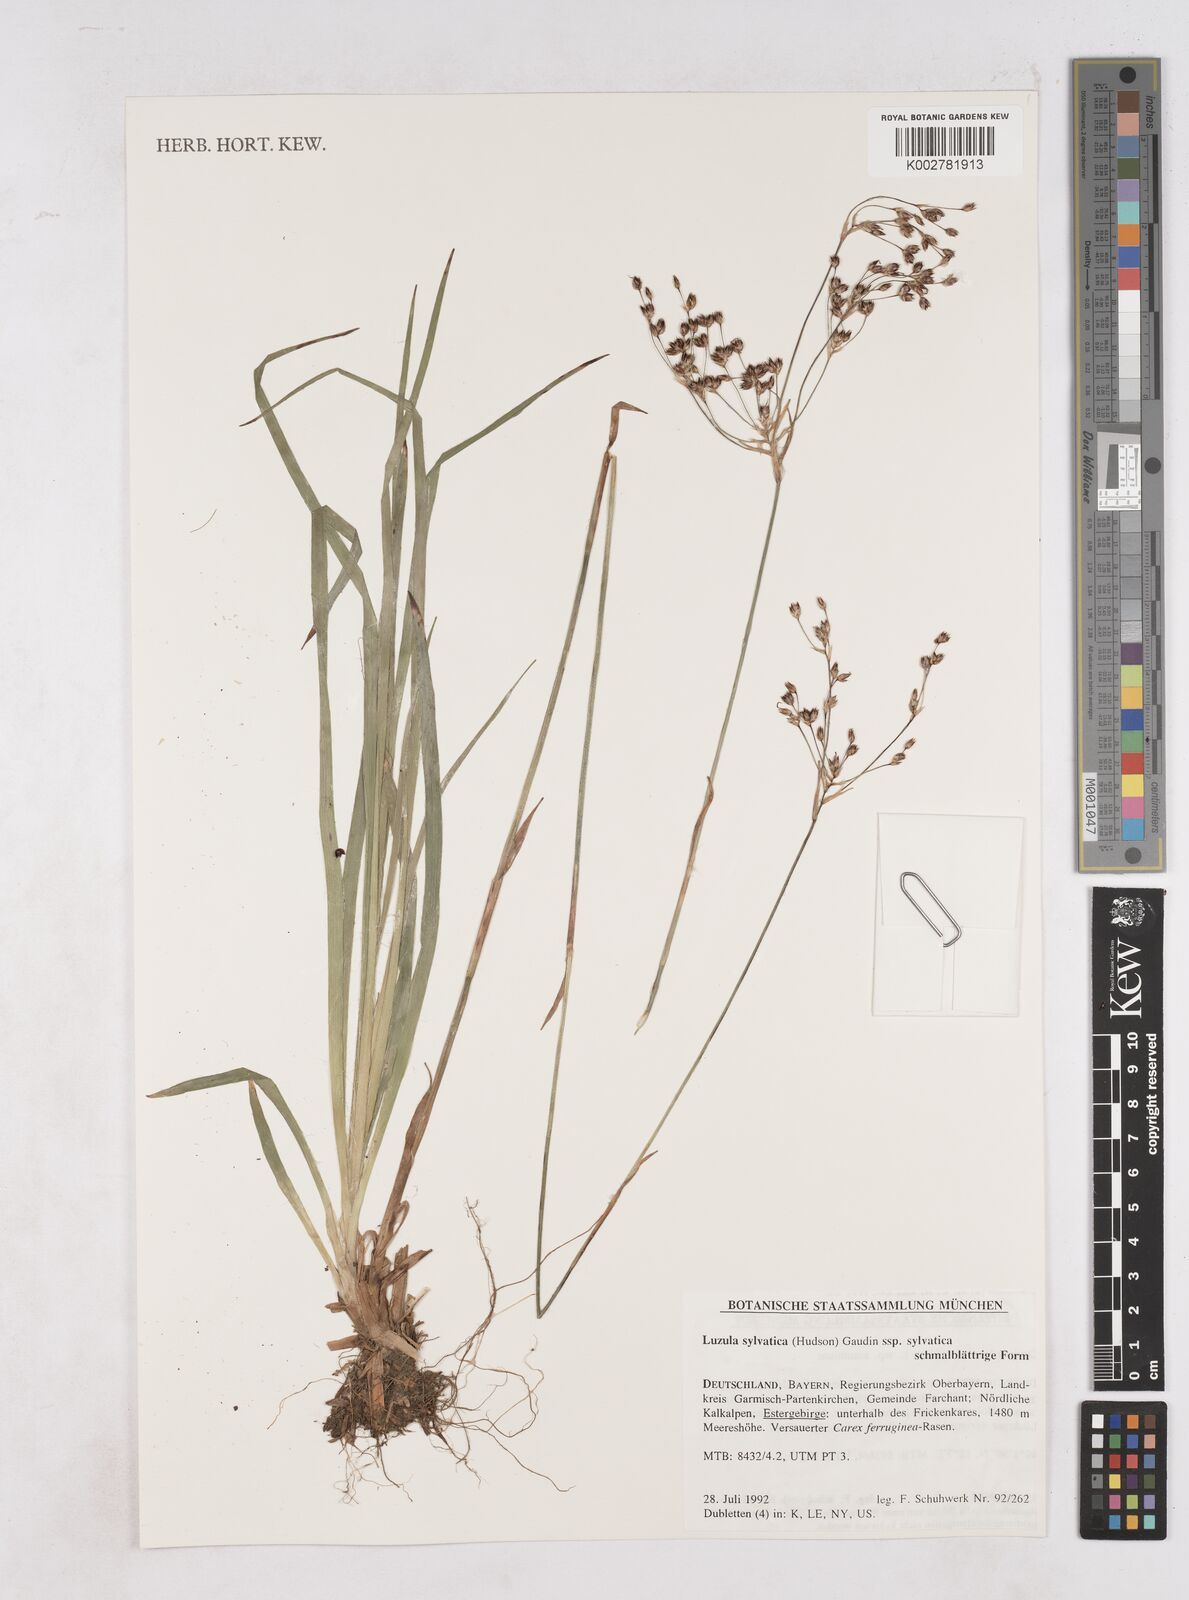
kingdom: Plantae
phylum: Tracheophyta
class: Liliopsida
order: Poales
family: Juncaceae
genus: Luzula
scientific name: Luzula sylvatica
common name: Great wood-rush
